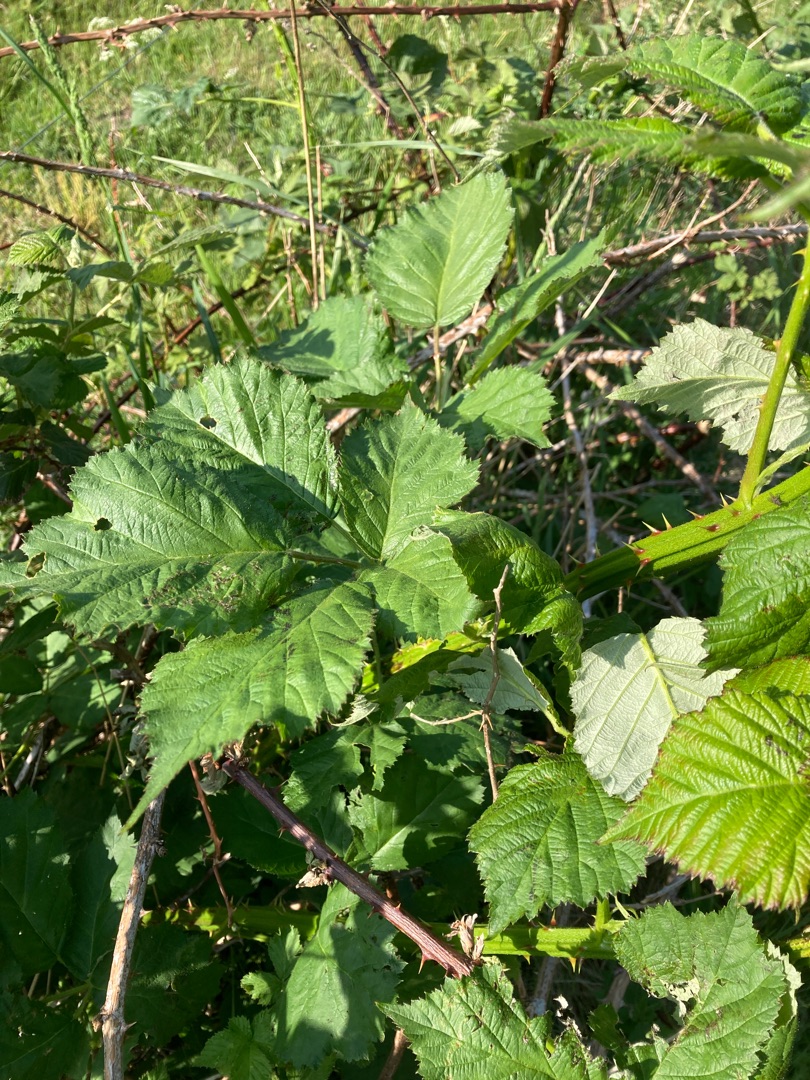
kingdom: Plantae
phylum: Tracheophyta
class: Magnoliopsida
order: Rosales
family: Rosaceae
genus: Rubus
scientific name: Rubus armeniacus
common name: Armensk brombær
